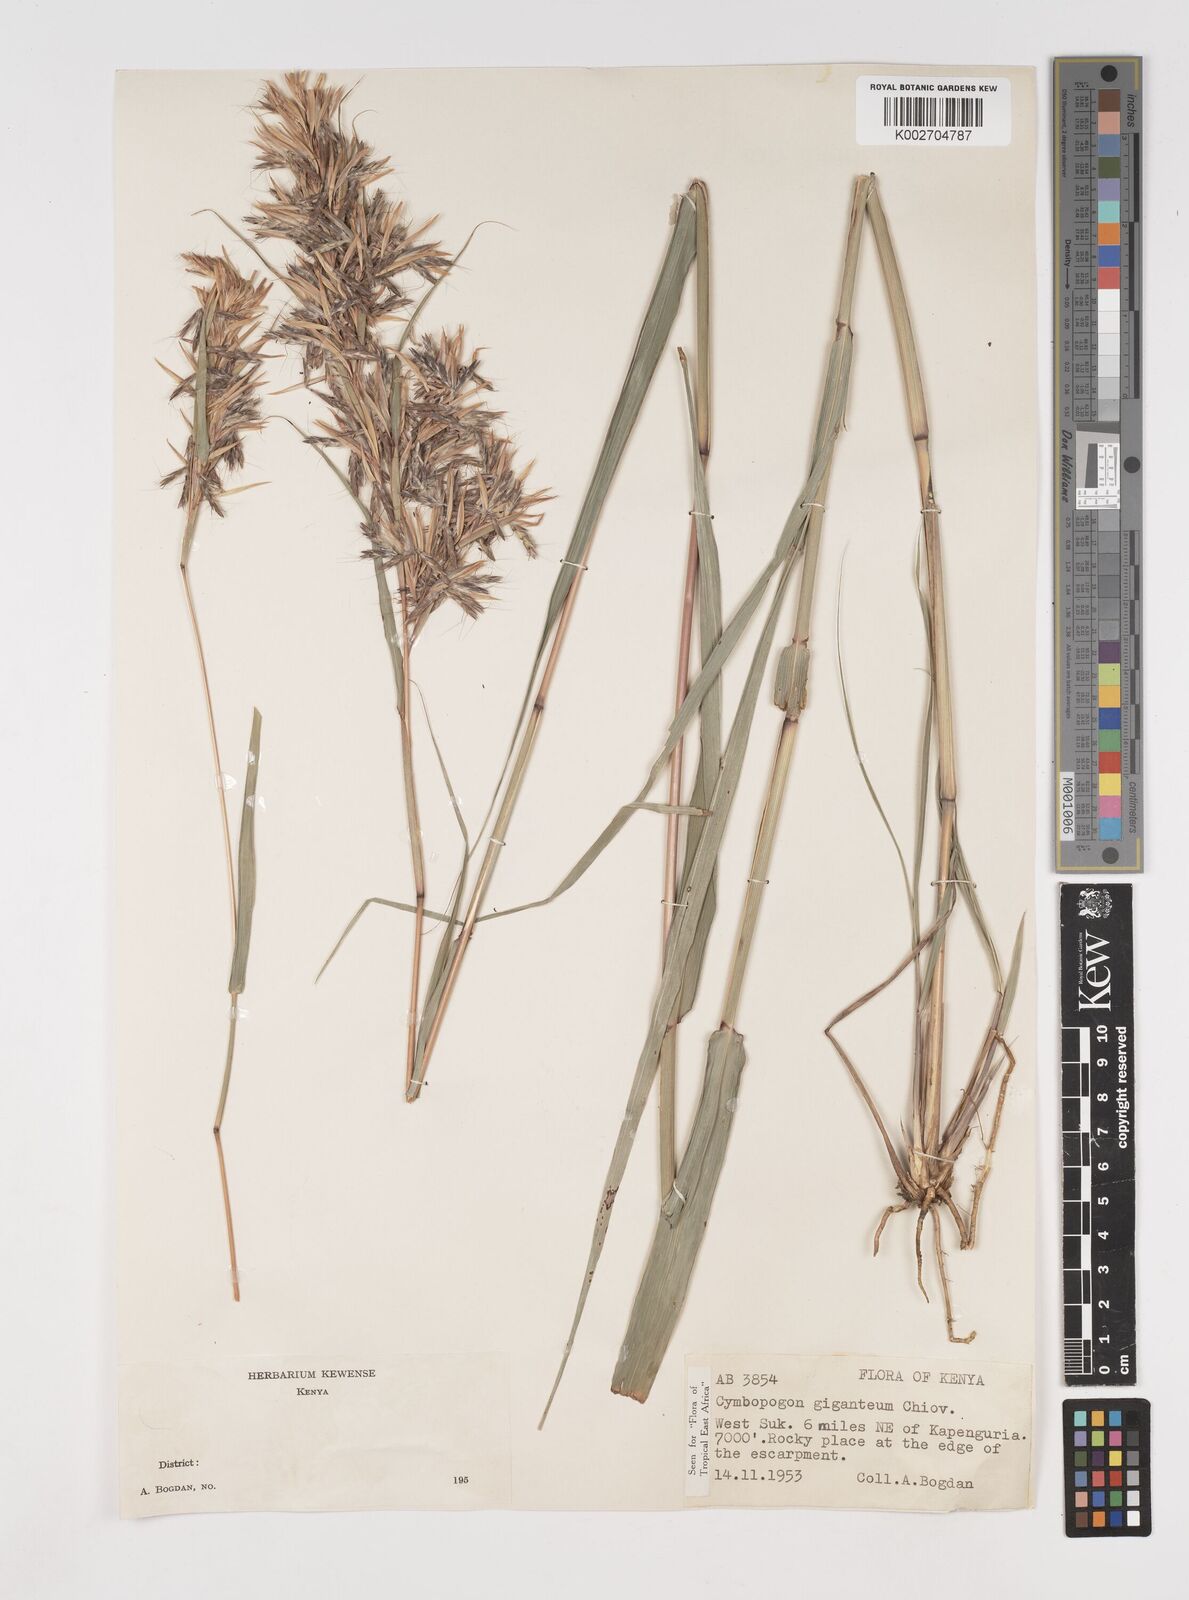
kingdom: Plantae
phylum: Tracheophyta
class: Liliopsida
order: Poales
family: Poaceae
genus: Cymbopogon
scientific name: Cymbopogon giganteus
